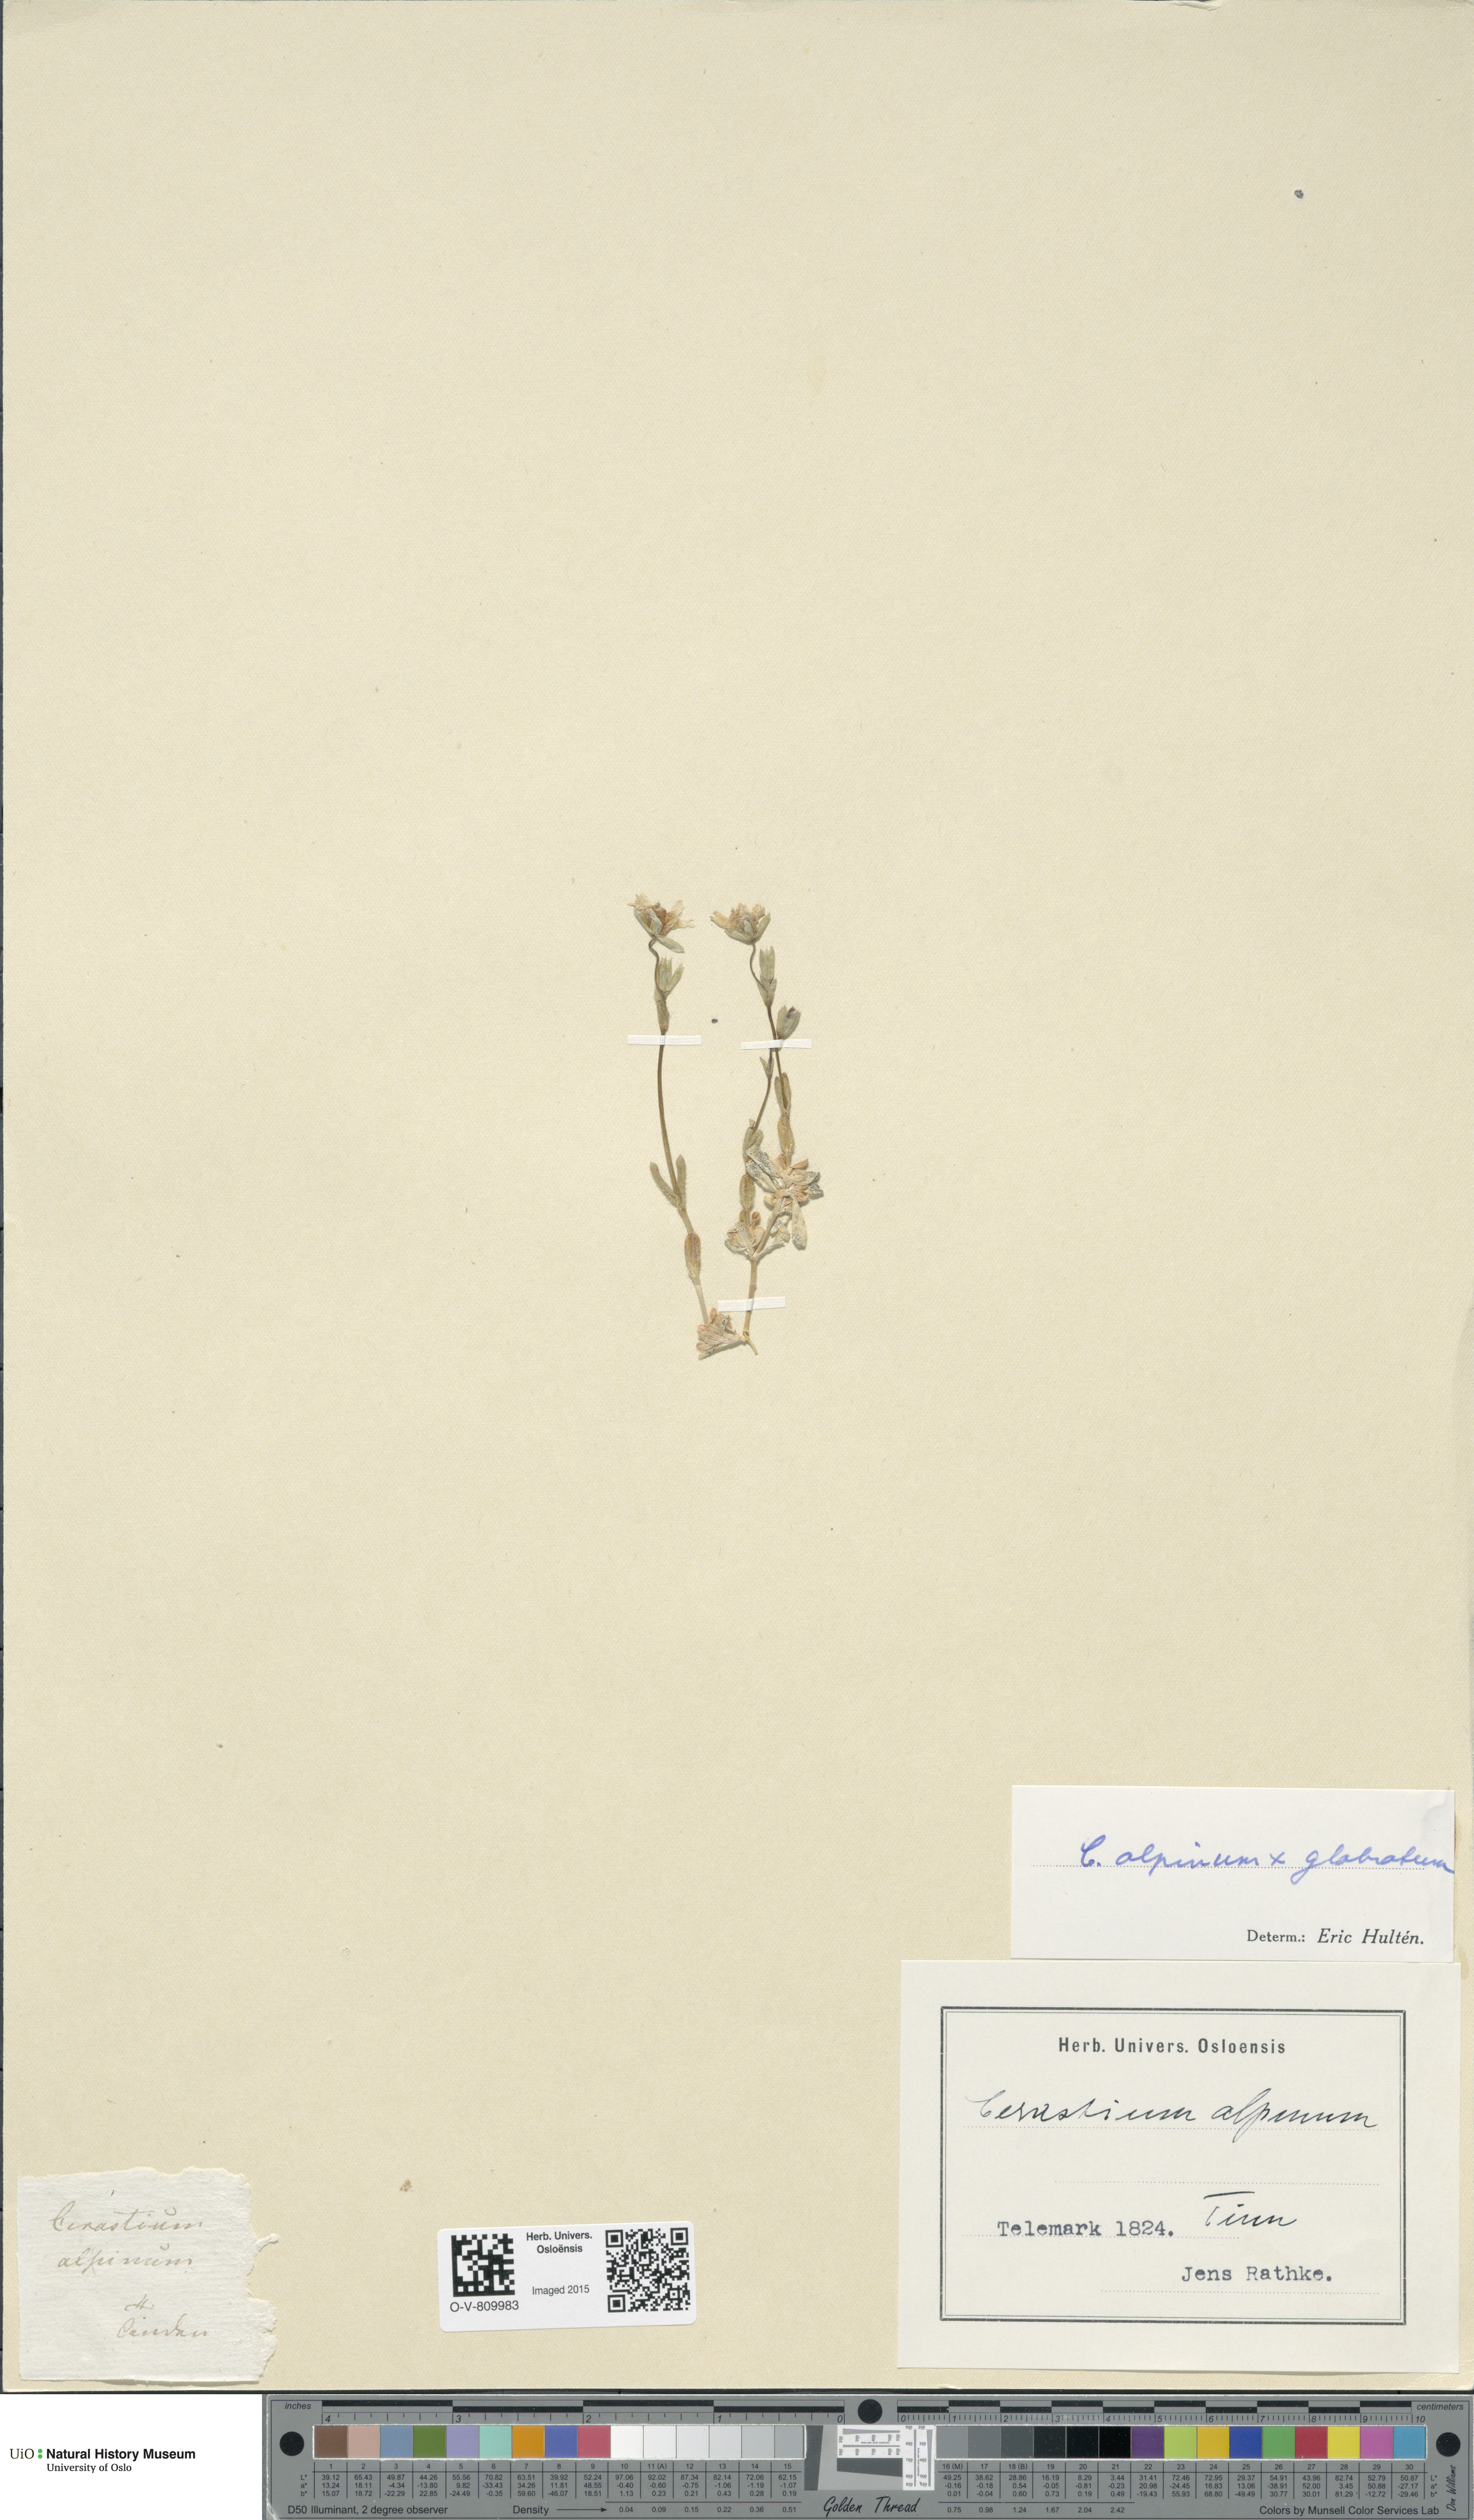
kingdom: Plantae
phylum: Tracheophyta
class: Magnoliopsida
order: Caryophyllales
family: Caryophyllaceae
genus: Cerastium
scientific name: Cerastium
